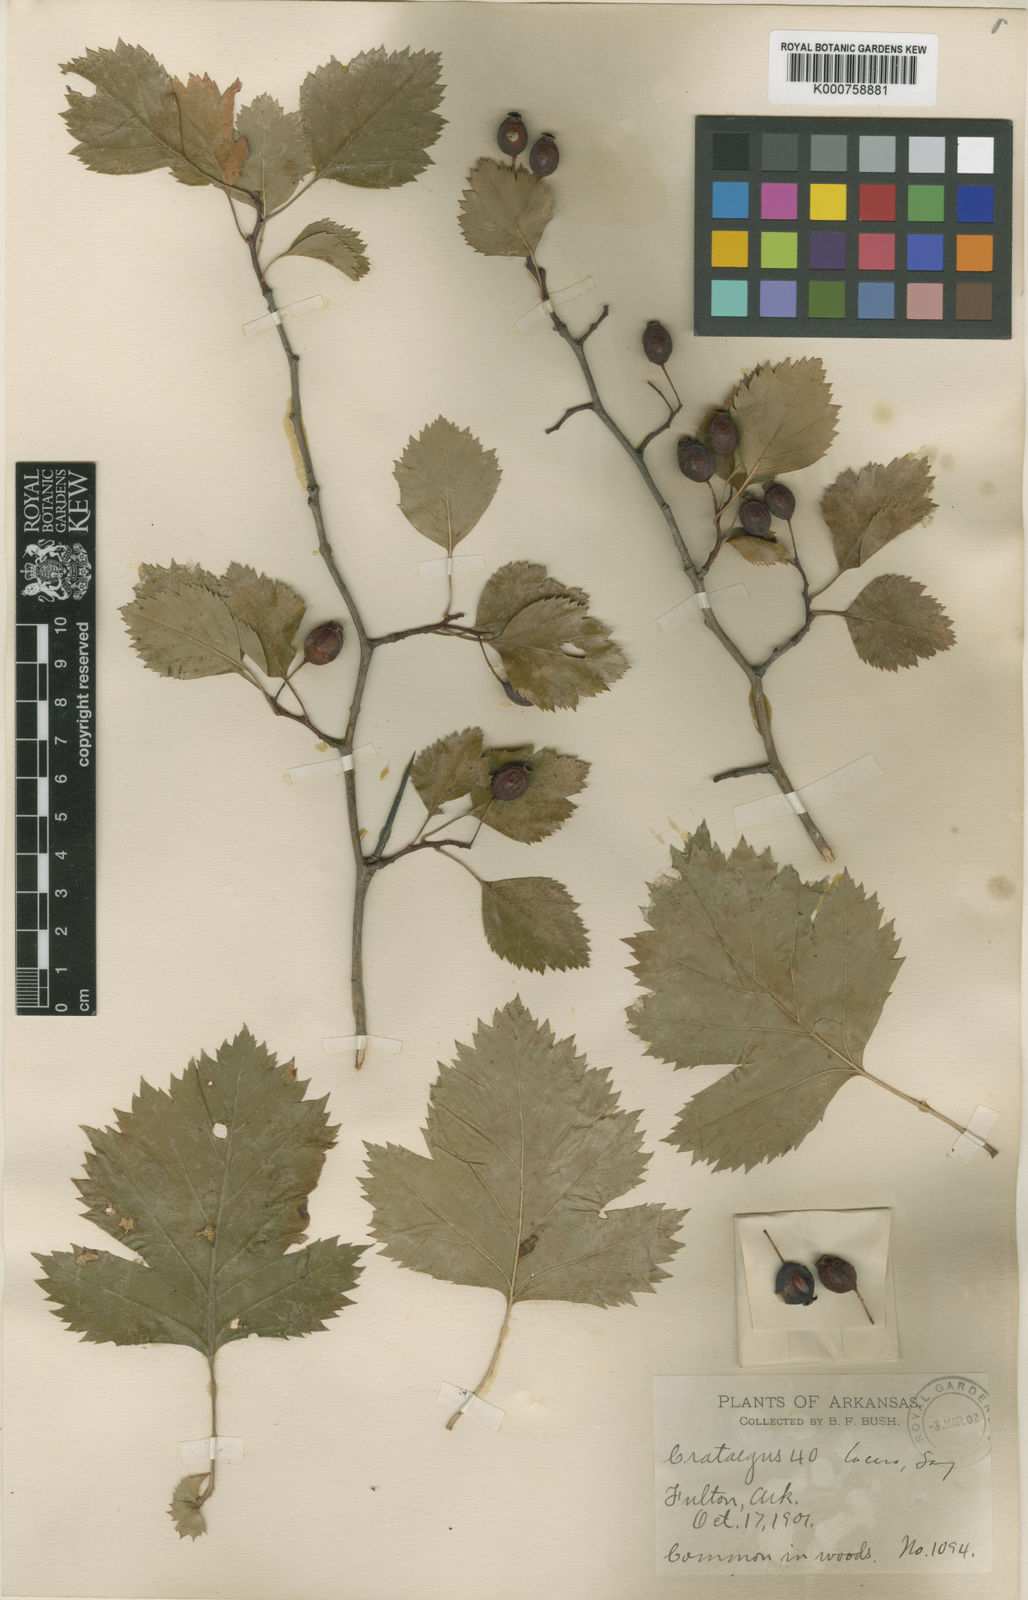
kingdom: Plantae
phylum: Tracheophyta
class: Magnoliopsida
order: Rosales
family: Rosaceae
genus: Crataegus
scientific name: Crataegus mollis
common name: Downy hawthorn
